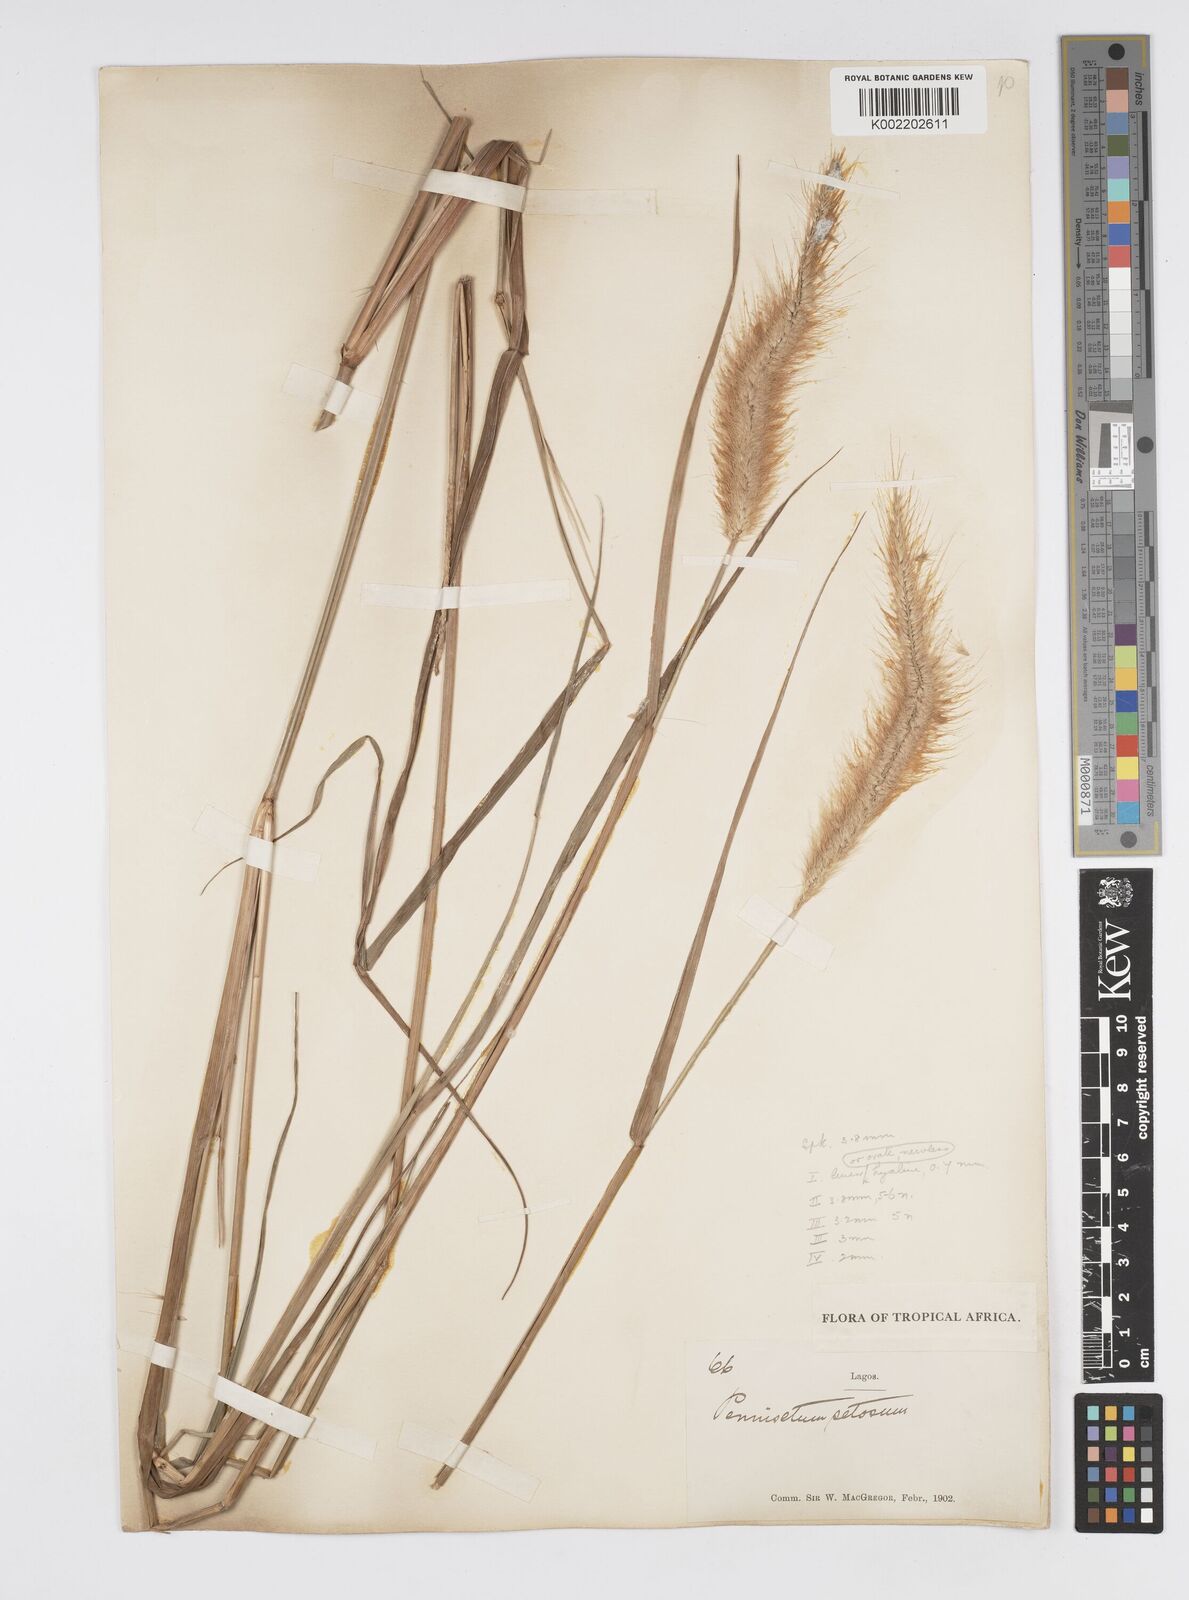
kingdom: Plantae
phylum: Tracheophyta
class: Liliopsida
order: Poales
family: Poaceae
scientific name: Poaceae
